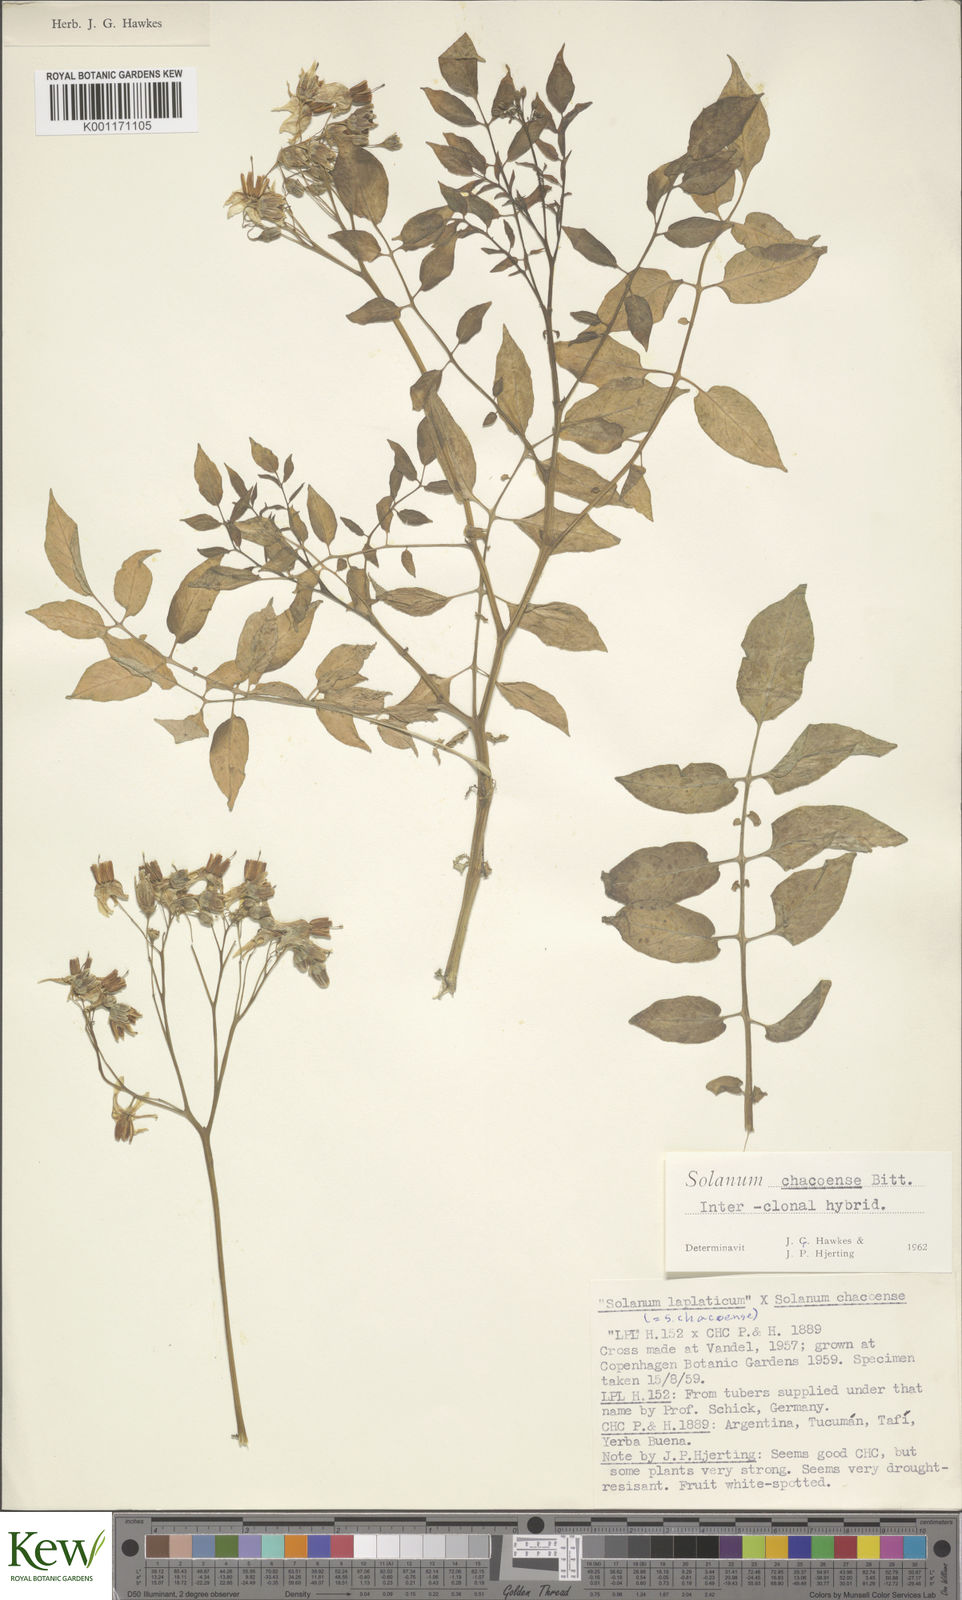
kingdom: Plantae
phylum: Tracheophyta
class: Magnoliopsida
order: Solanales
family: Solanaceae
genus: Solanum
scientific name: Solanum chacoense
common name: Chaco potato
